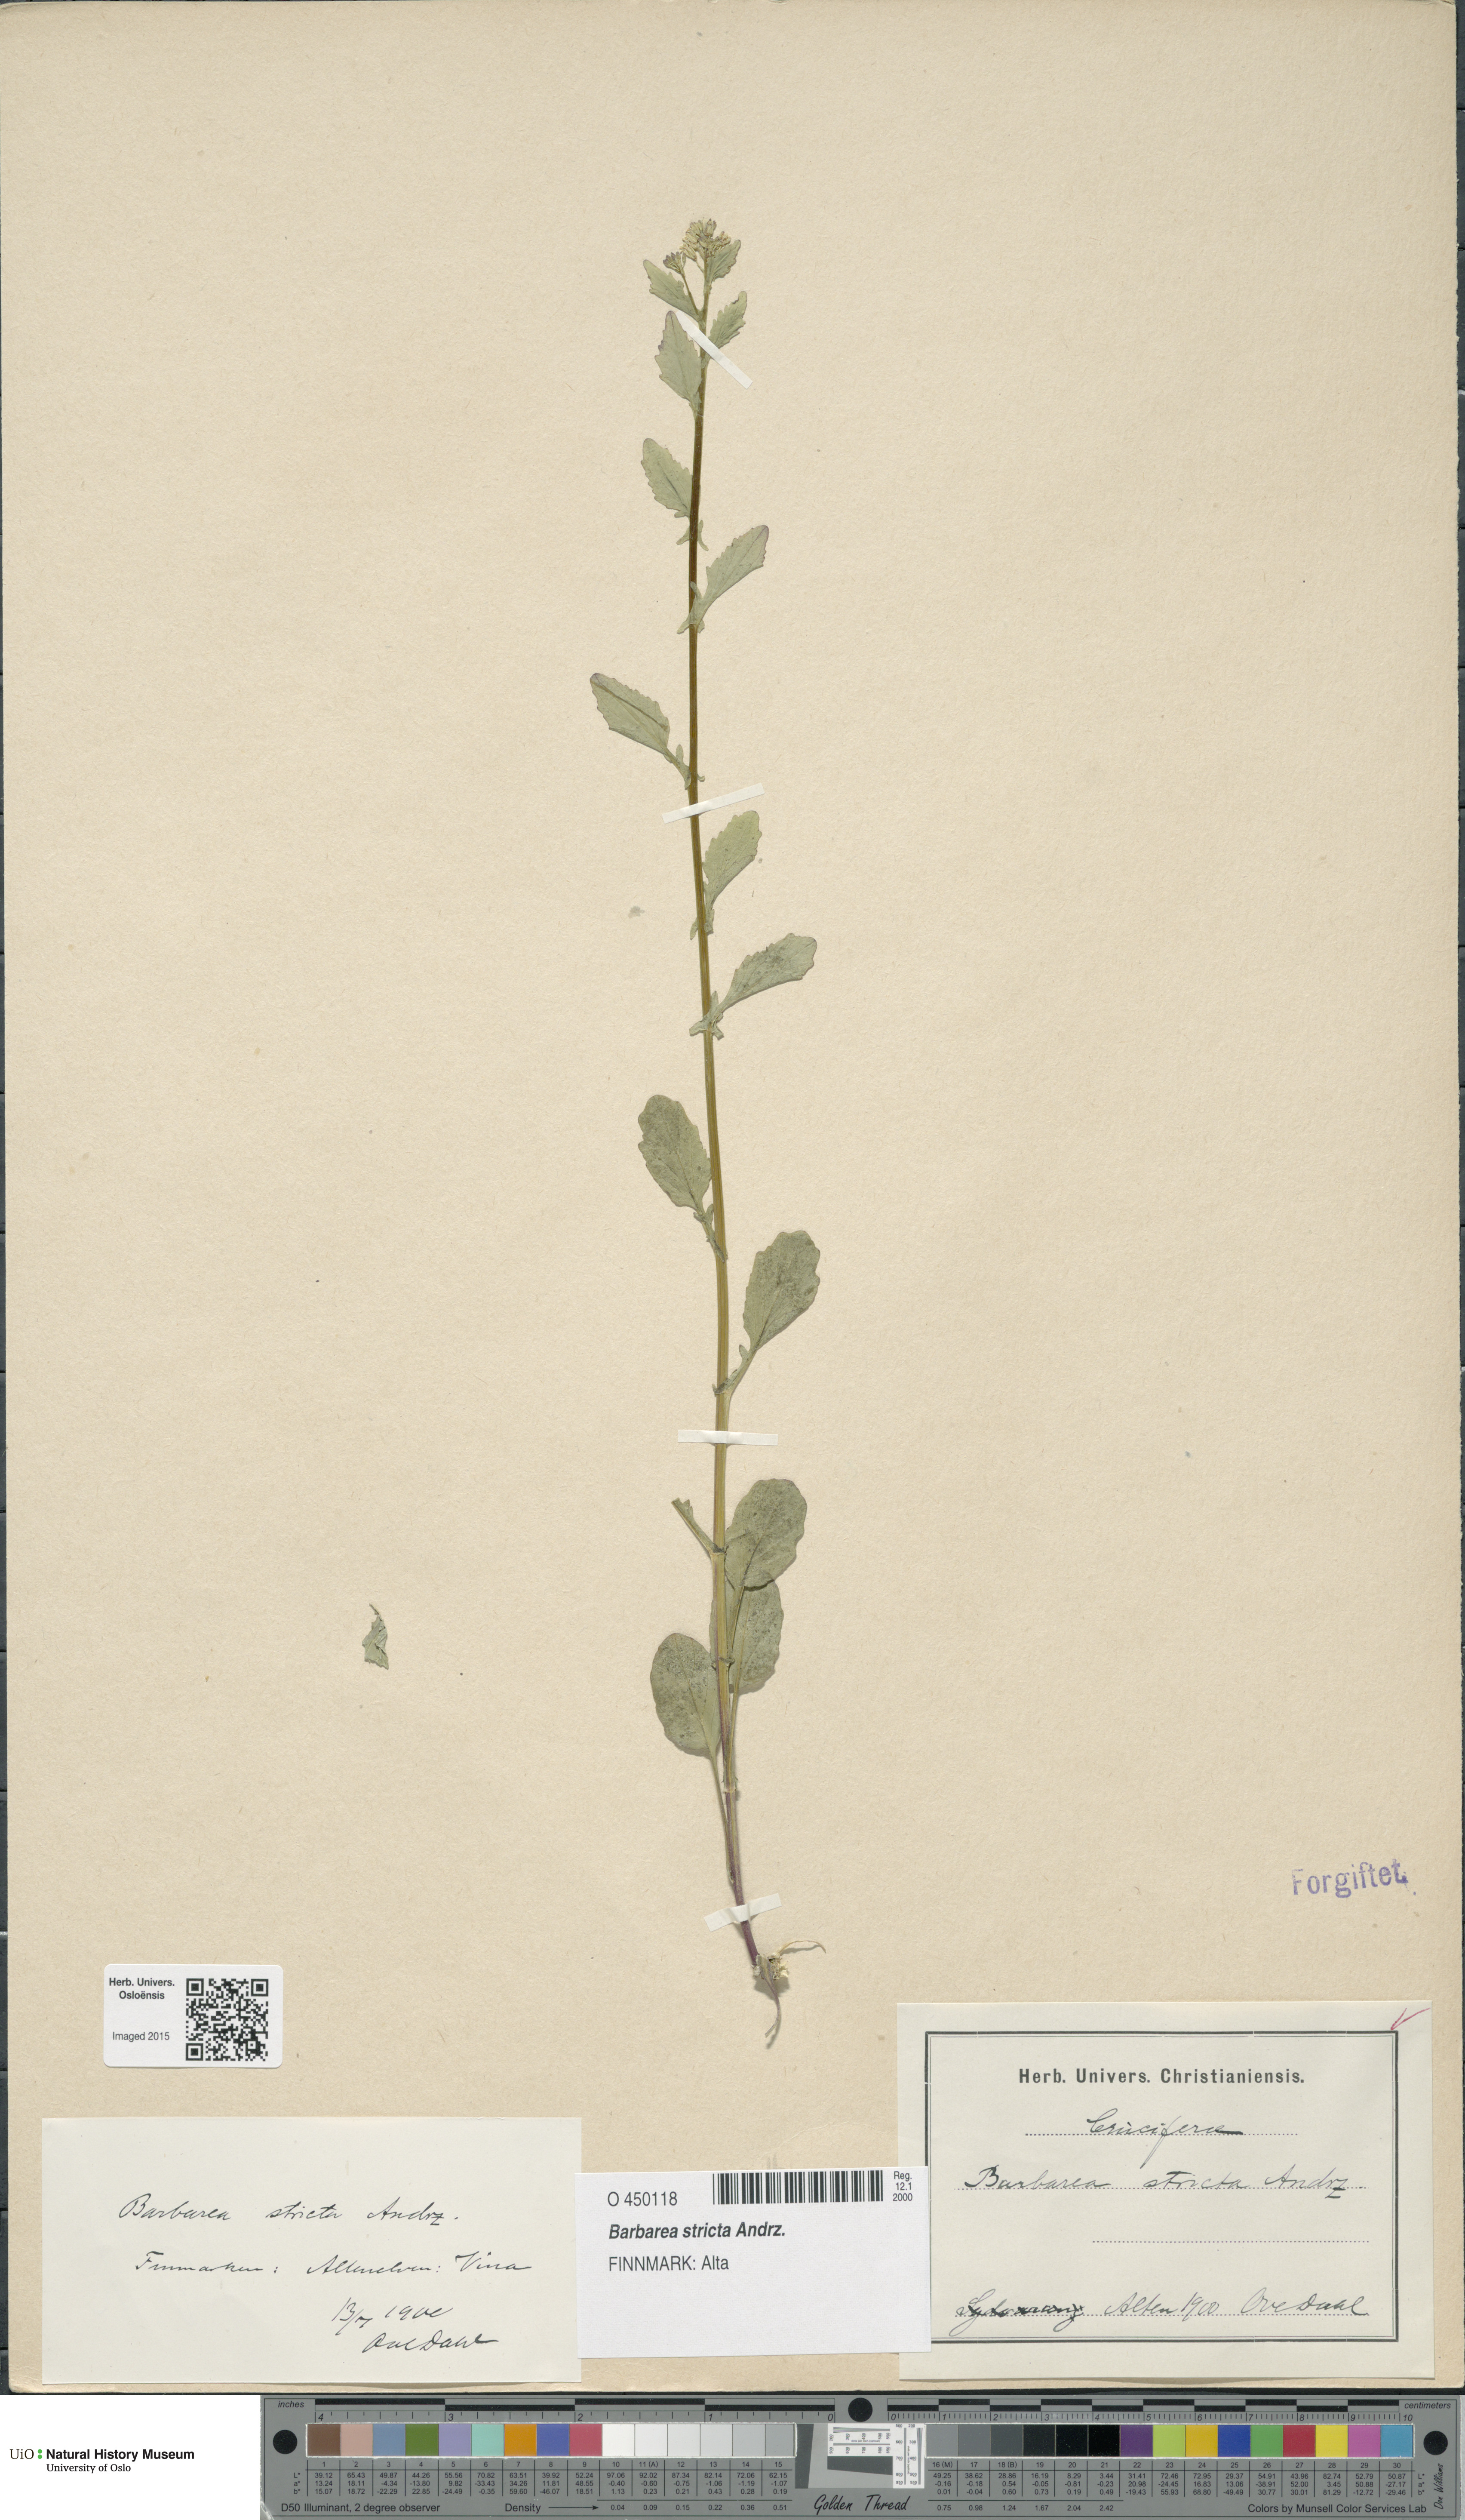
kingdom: Plantae
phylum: Tracheophyta
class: Magnoliopsida
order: Brassicales
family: Brassicaceae
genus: Barbarea
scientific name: Barbarea stricta
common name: Small-flowered winter-cress
